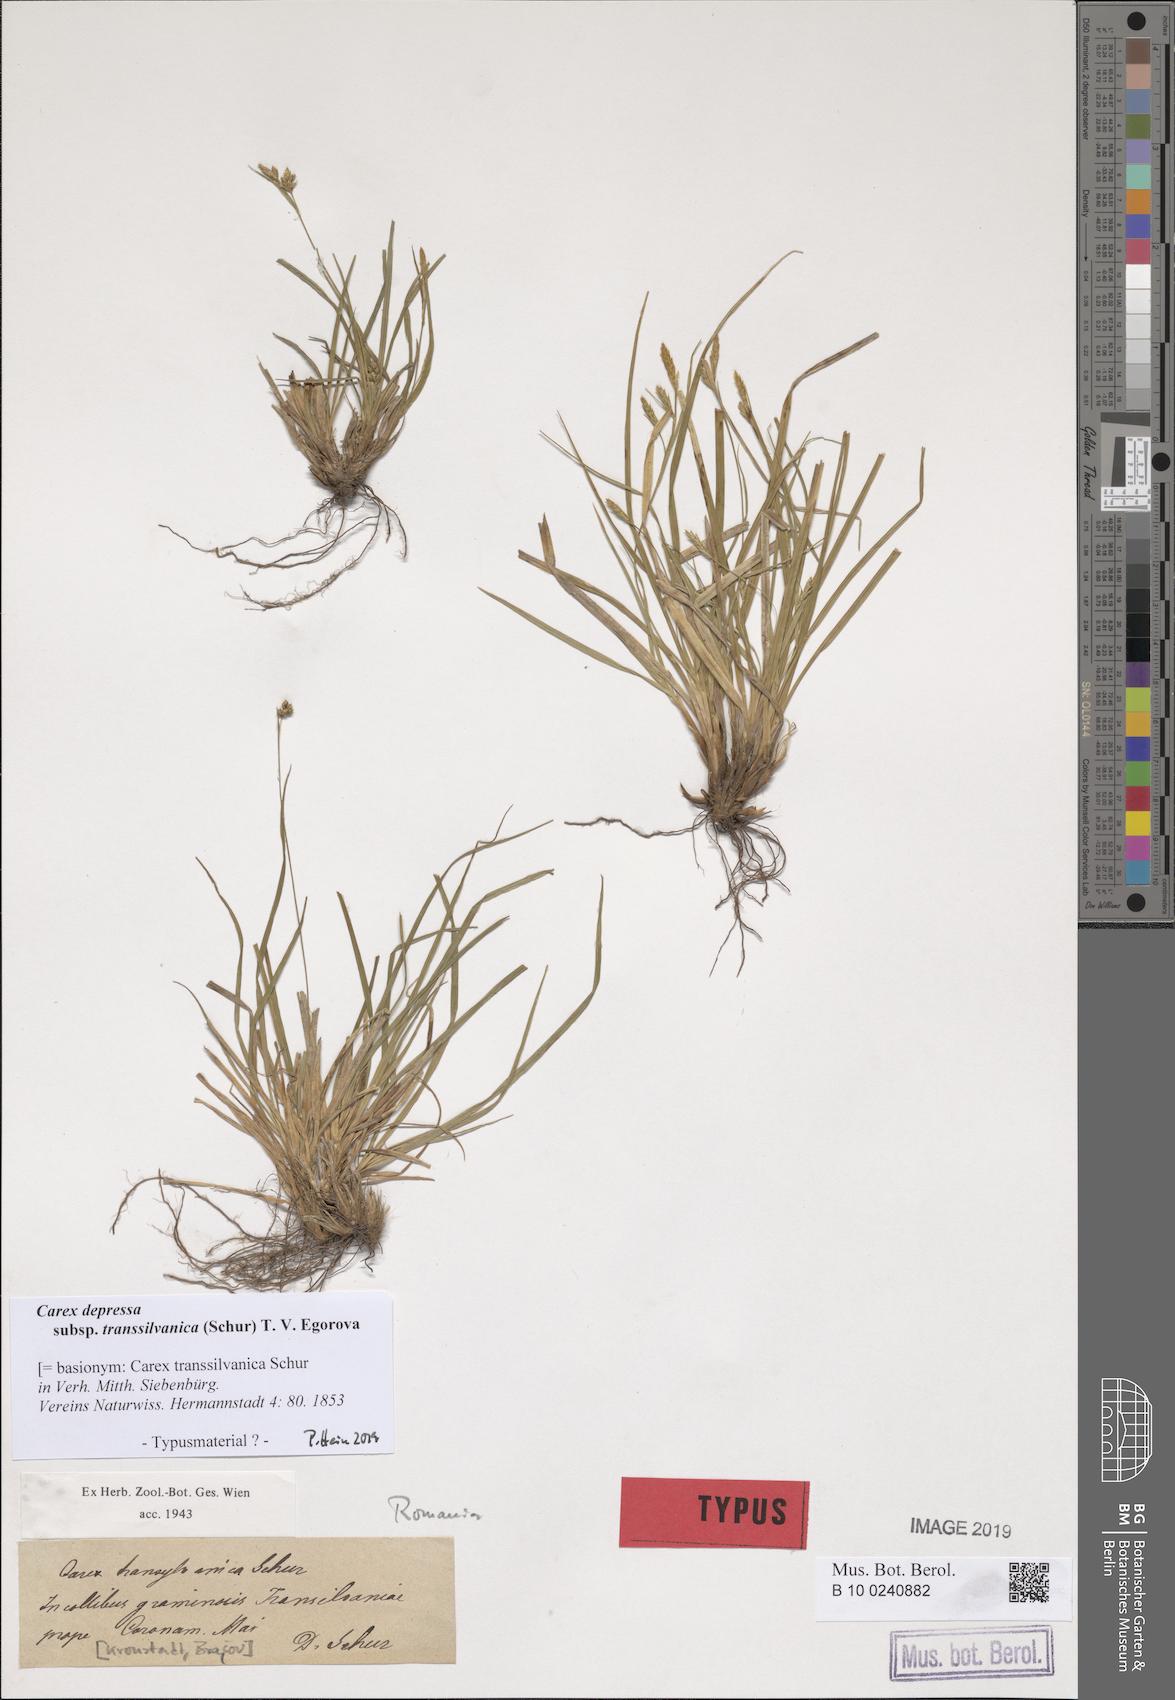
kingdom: Plantae
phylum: Tracheophyta
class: Liliopsida
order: Poales
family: Cyperaceae
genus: Carex
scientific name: Carex depressa
